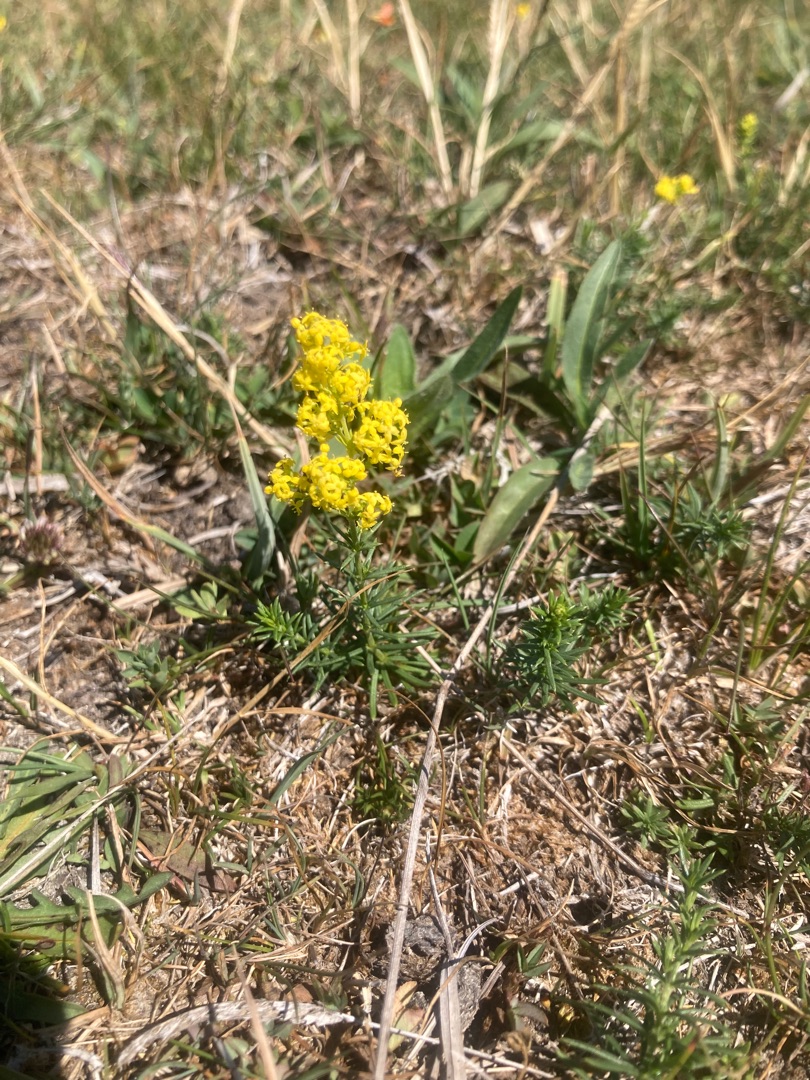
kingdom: Plantae
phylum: Tracheophyta
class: Magnoliopsida
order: Gentianales
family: Rubiaceae
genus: Galium
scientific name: Galium verum
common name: Gul snerre
